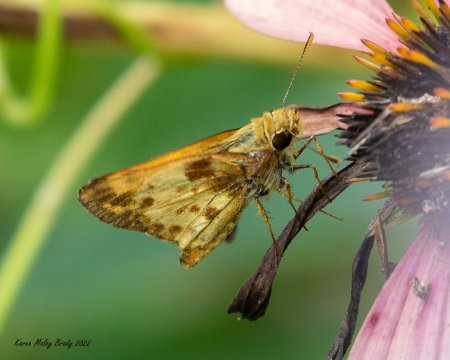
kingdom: Animalia
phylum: Arthropoda
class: Insecta
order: Lepidoptera
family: Hesperiidae
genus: Lon
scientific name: Lon zabulon
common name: Zabulon Skipper
